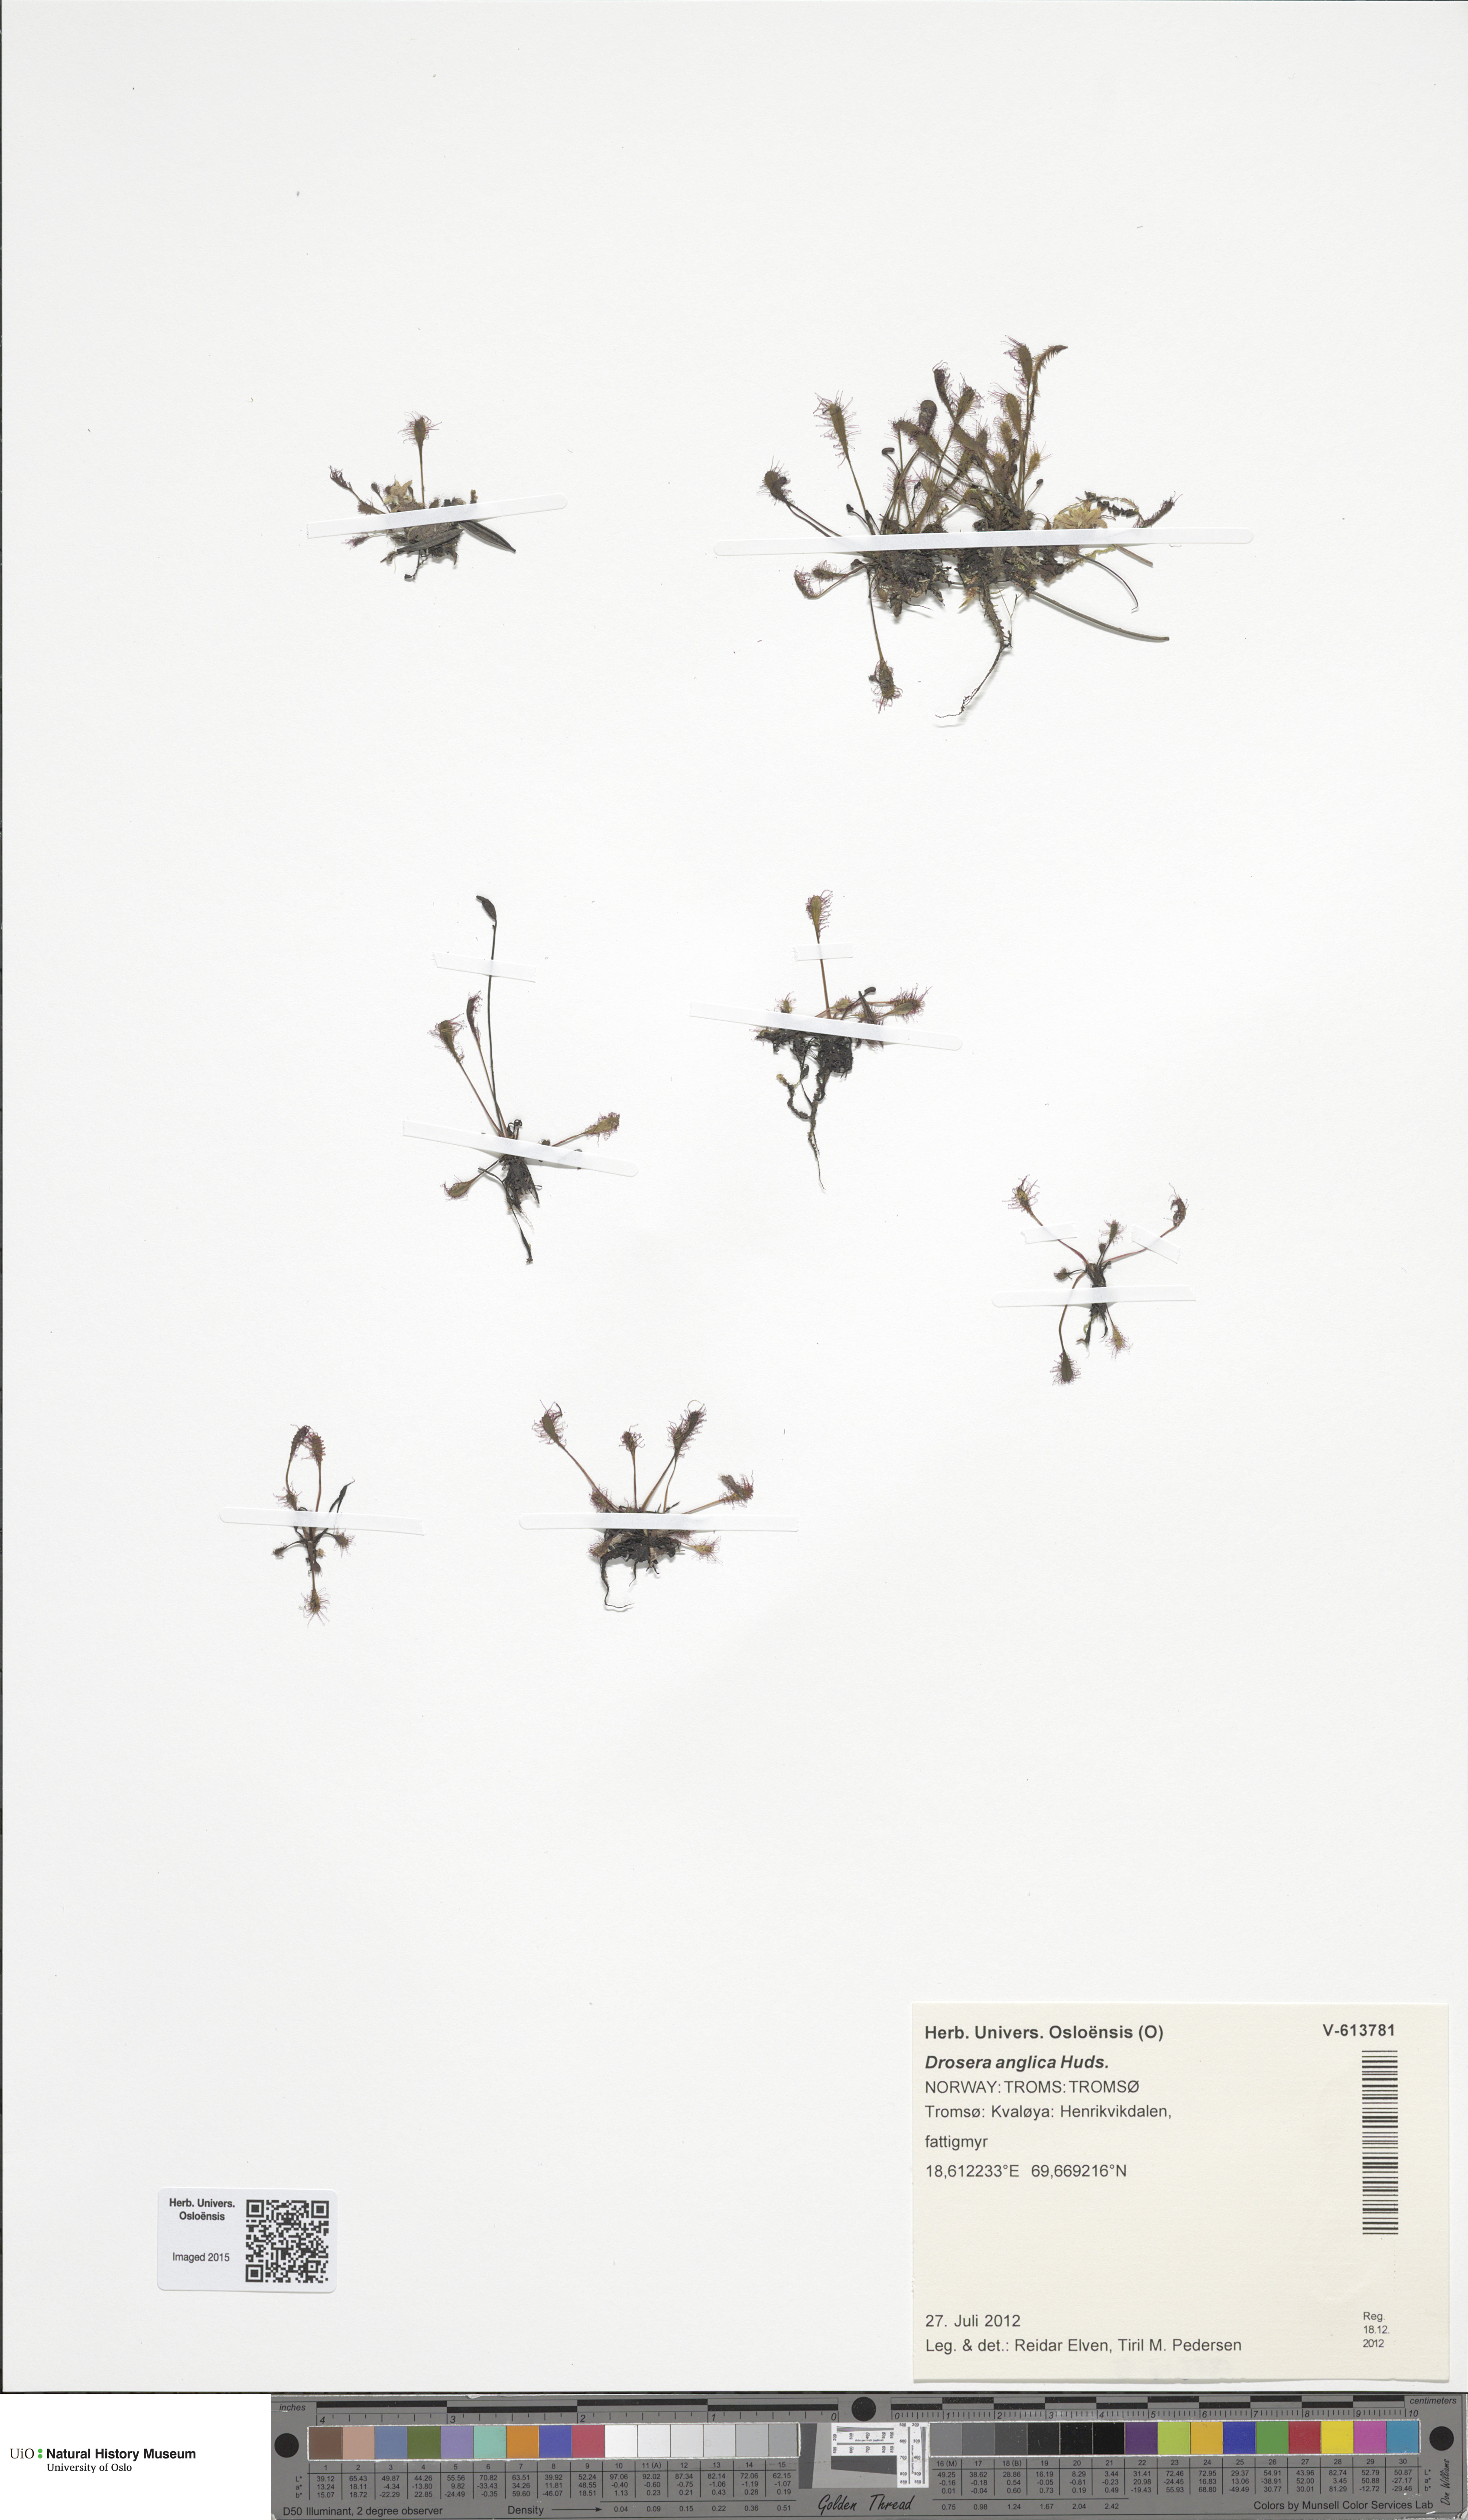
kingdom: Plantae
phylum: Tracheophyta
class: Magnoliopsida
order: Caryophyllales
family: Droseraceae
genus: Drosera
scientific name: Drosera anglica
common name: Great sundew
